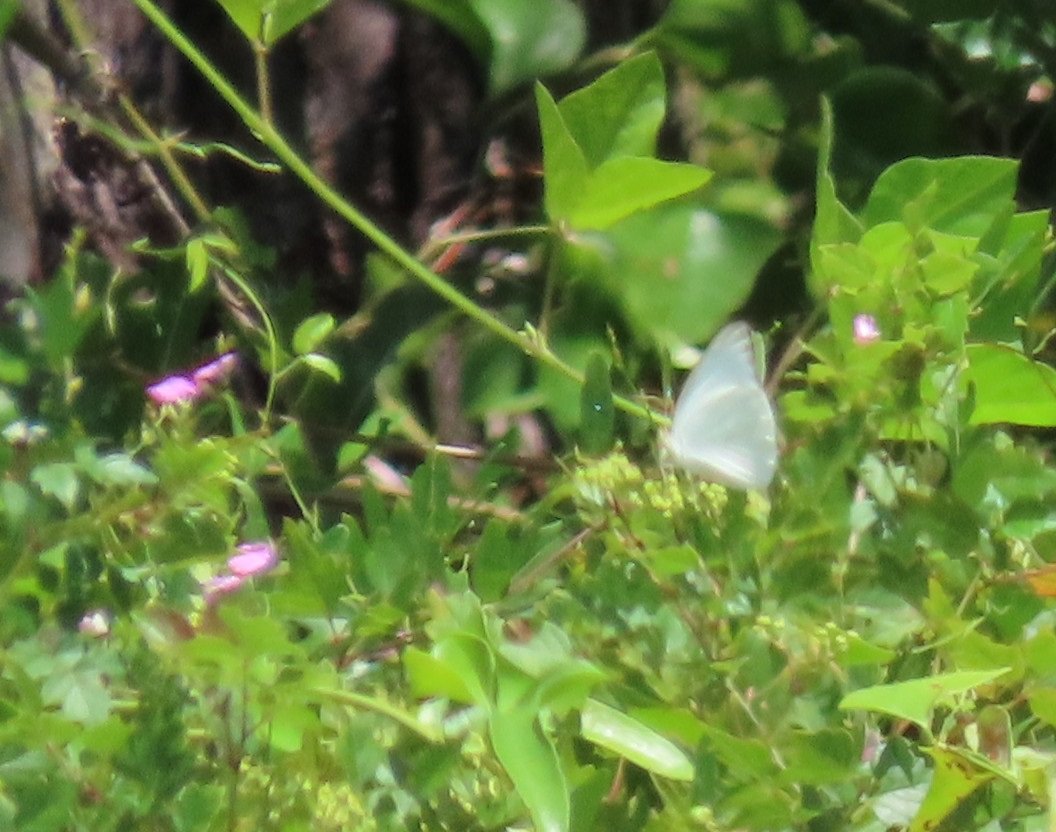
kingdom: Animalia
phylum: Arthropoda
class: Insecta
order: Lepidoptera
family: Pieridae
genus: Ascia
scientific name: Ascia monuste
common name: Great Southern White
